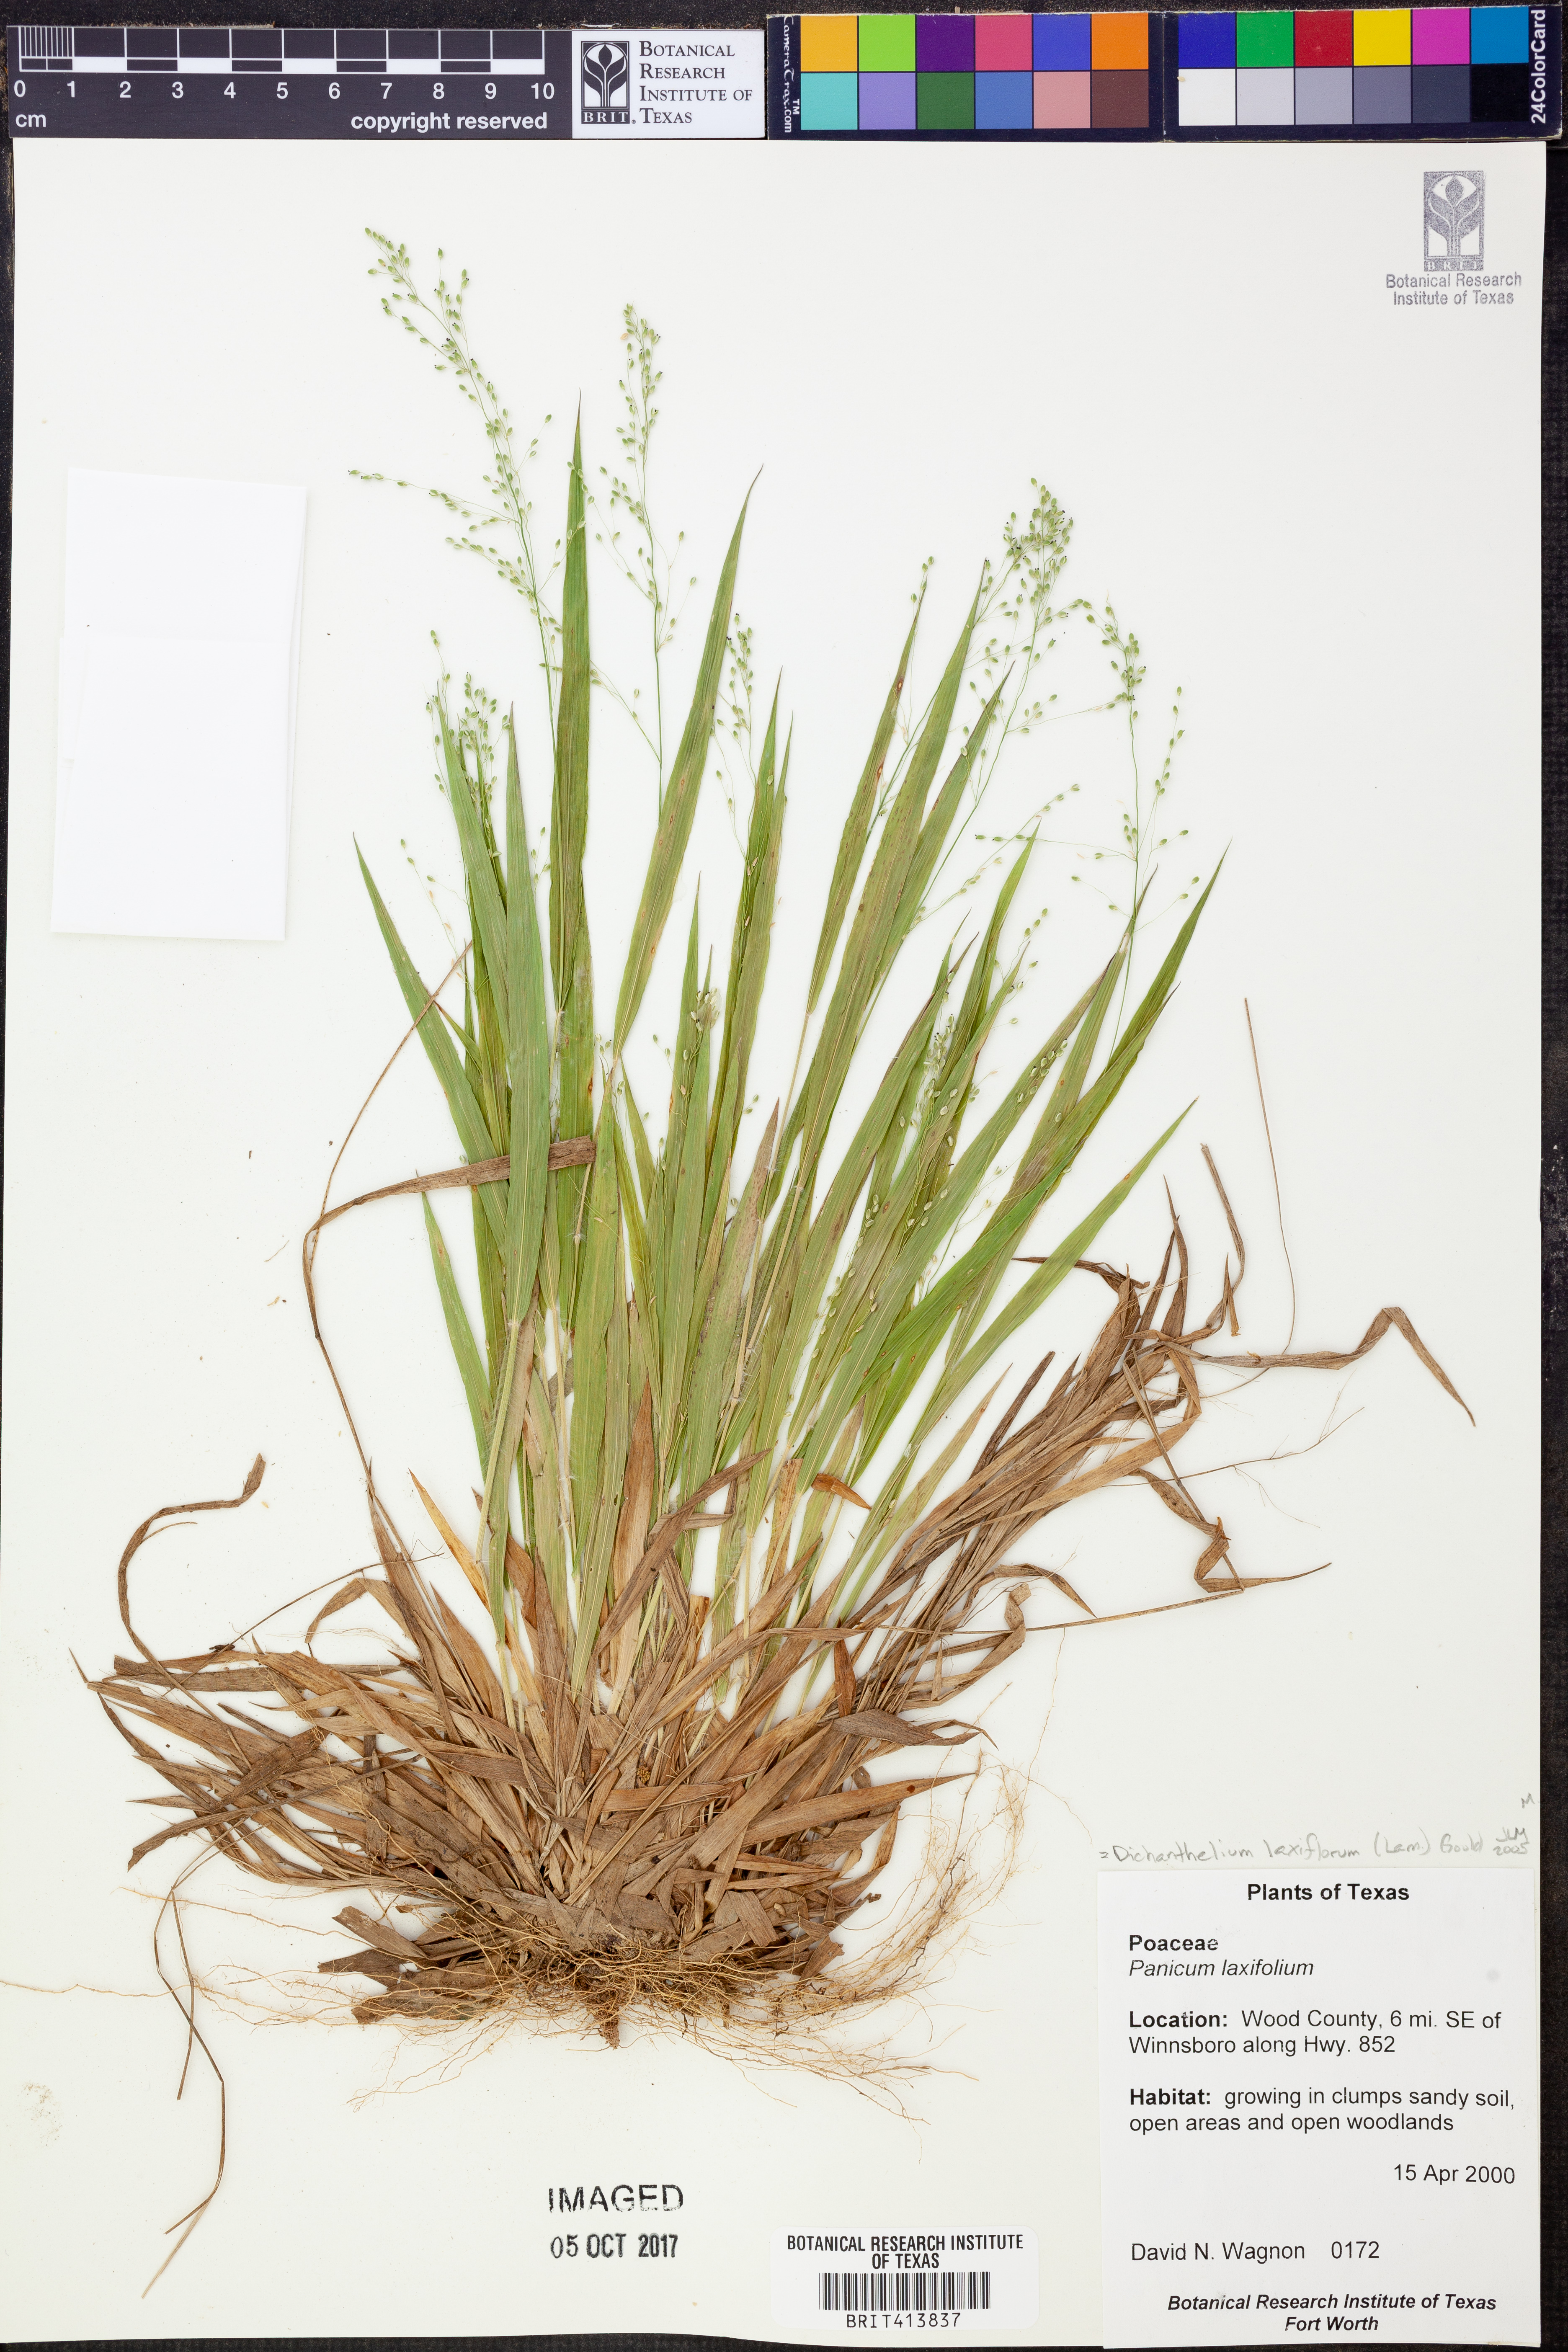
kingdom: Plantae
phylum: Tracheophyta
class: Liliopsida
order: Poales
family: Poaceae
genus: Poa
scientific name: Poa aequalis
